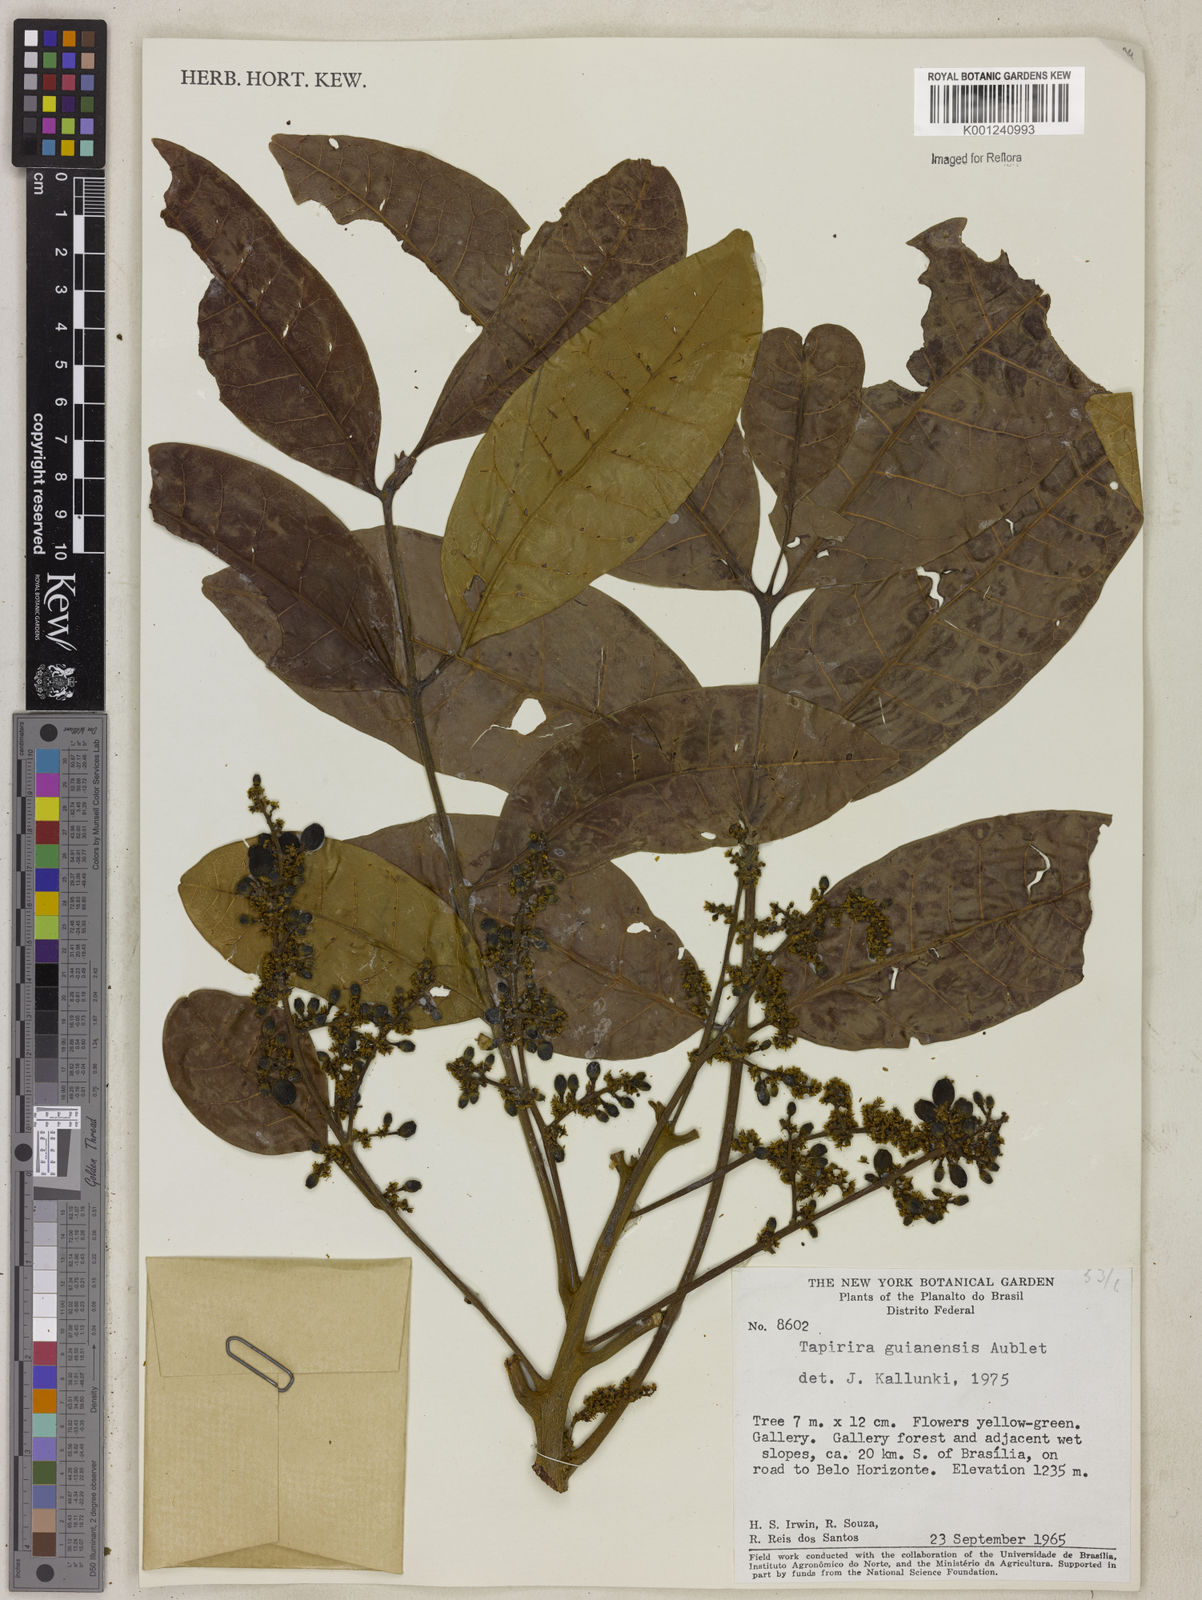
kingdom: Plantae
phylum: Tracheophyta
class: Magnoliopsida
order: Sapindales
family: Anacardiaceae
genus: Tapirira
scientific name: Tapirira guianensis
